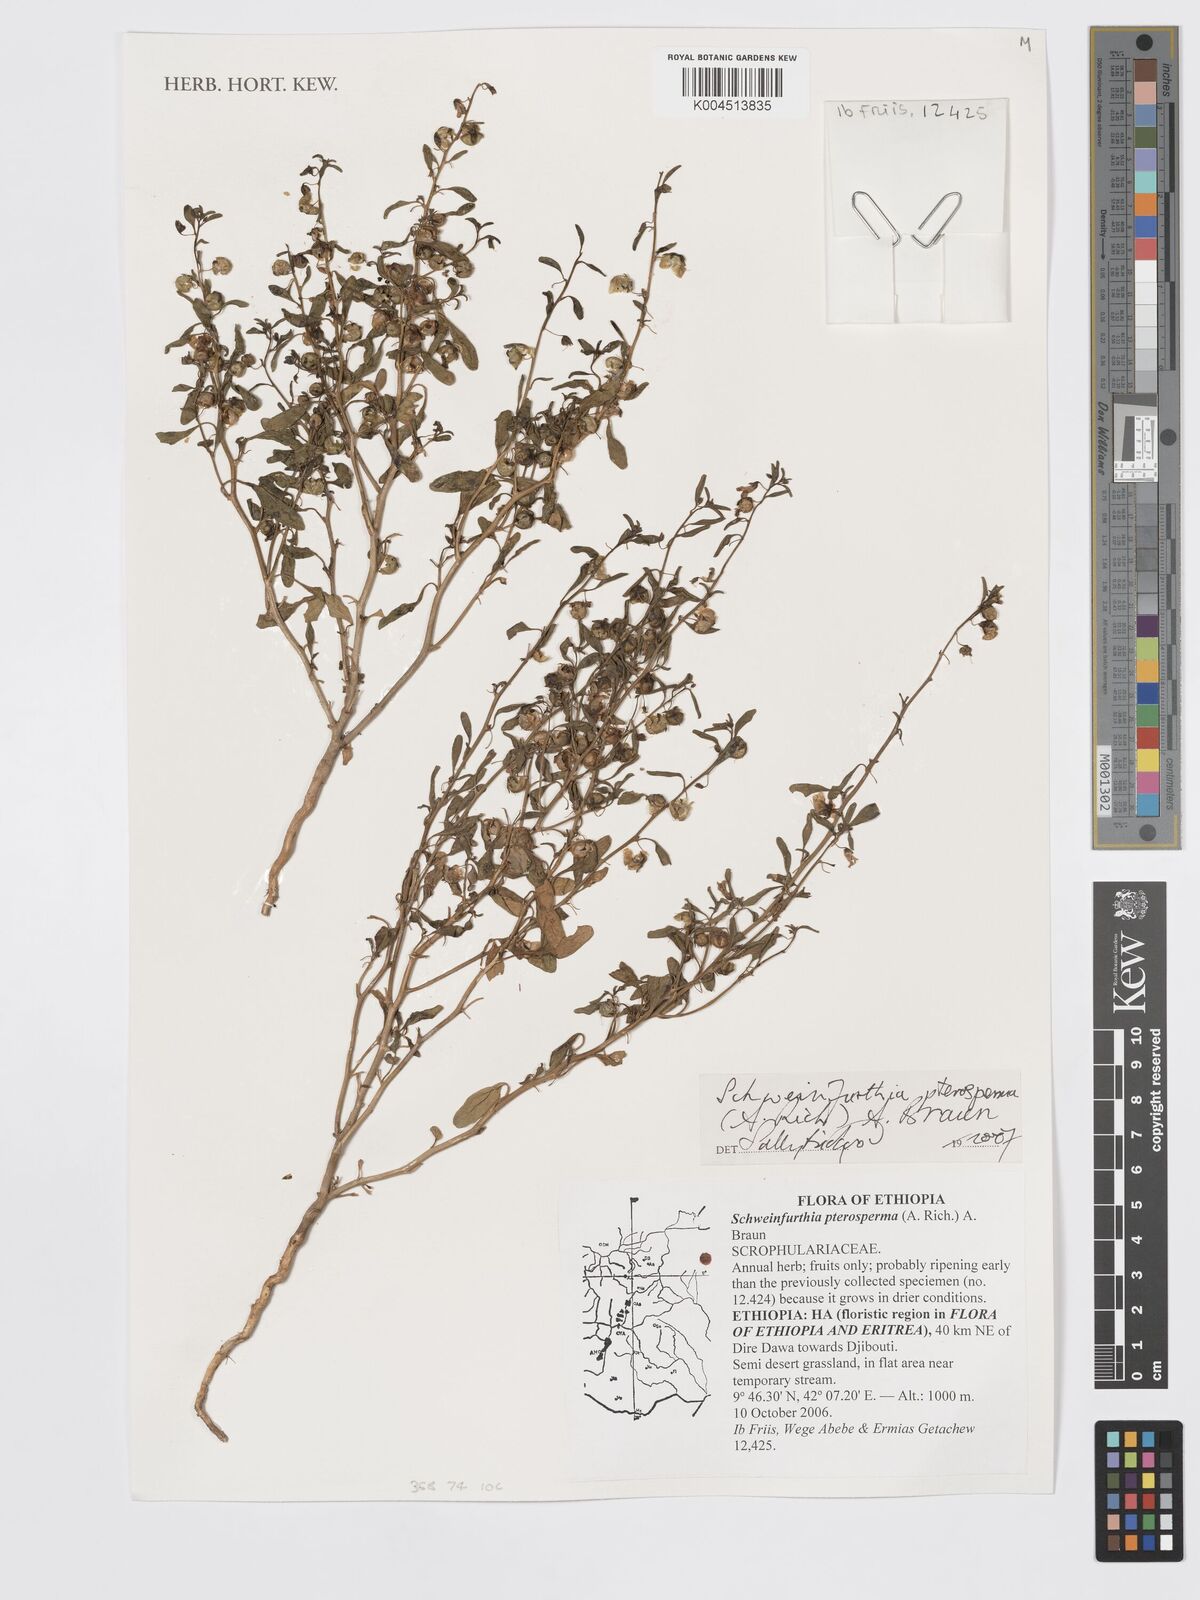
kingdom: Plantae
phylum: Tracheophyta
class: Magnoliopsida
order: Lamiales
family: Plantaginaceae
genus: Schweinfurthia
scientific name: Schweinfurthia pterosperma
